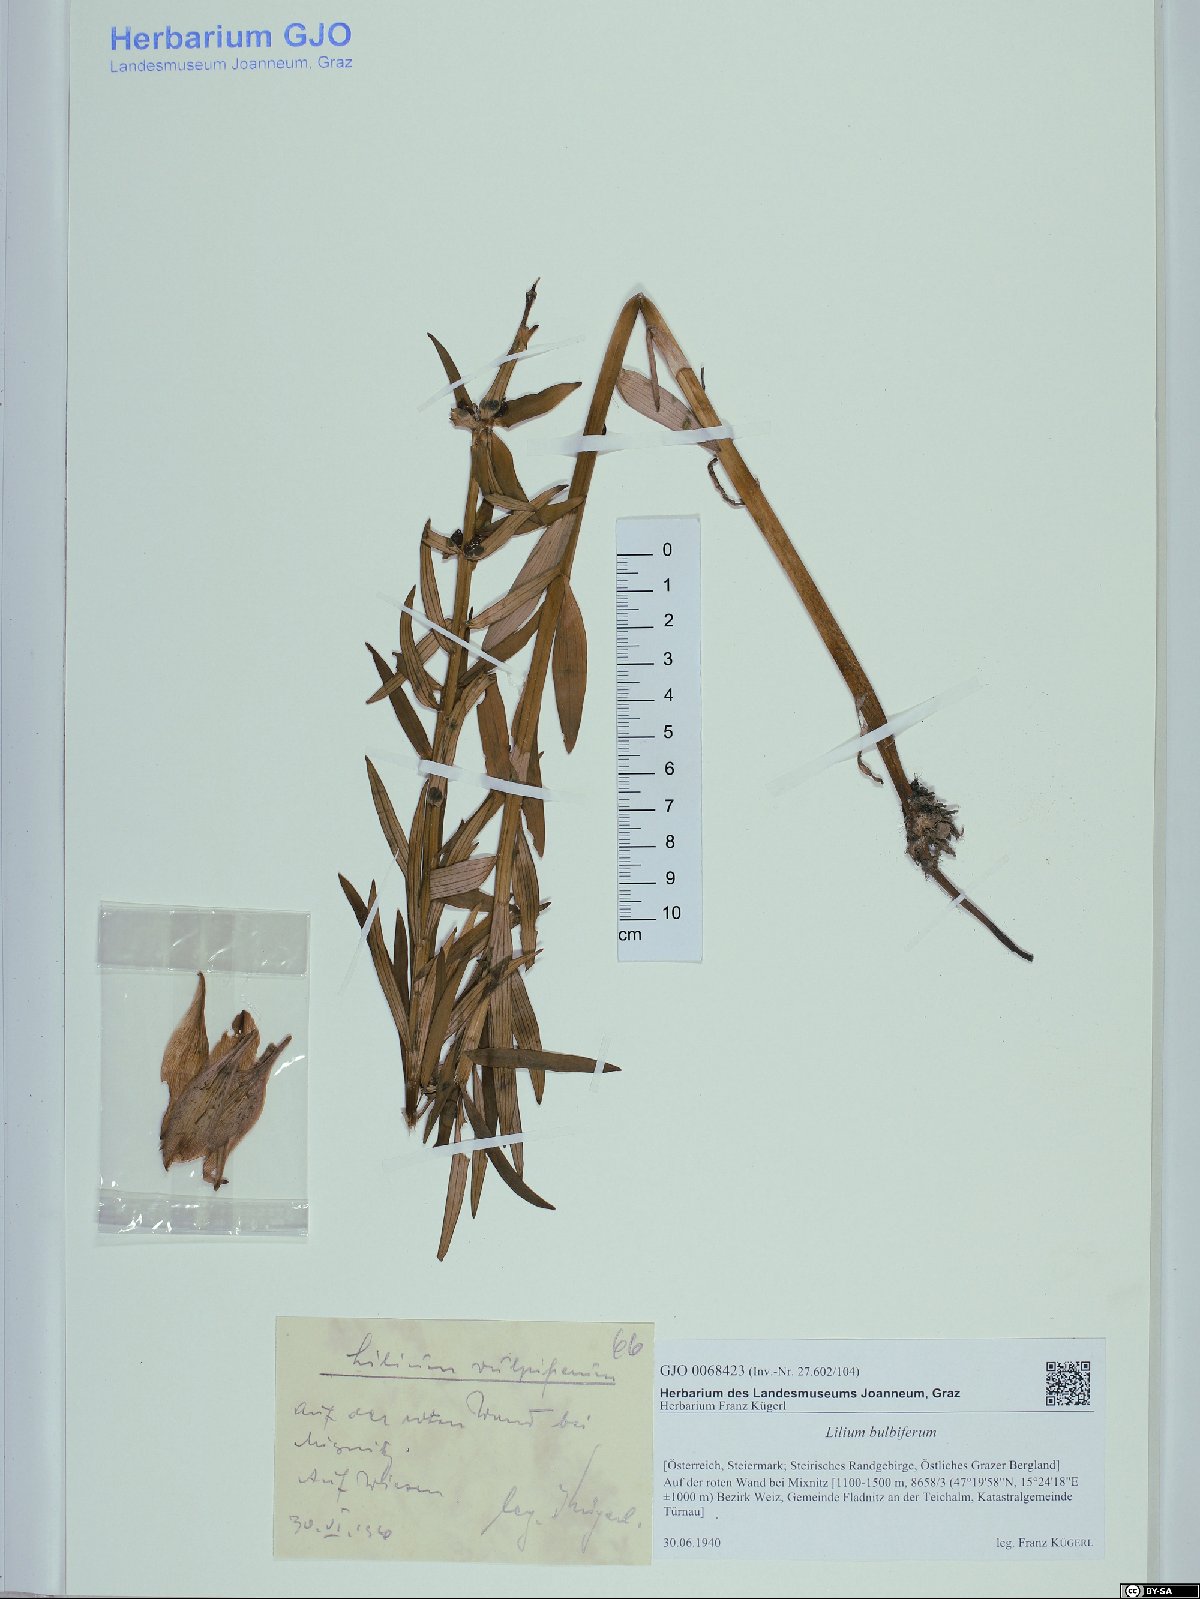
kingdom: Plantae
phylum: Tracheophyta
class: Liliopsida
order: Liliales
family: Liliaceae
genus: Lilium
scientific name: Lilium bulbiferum
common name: Orange lily
